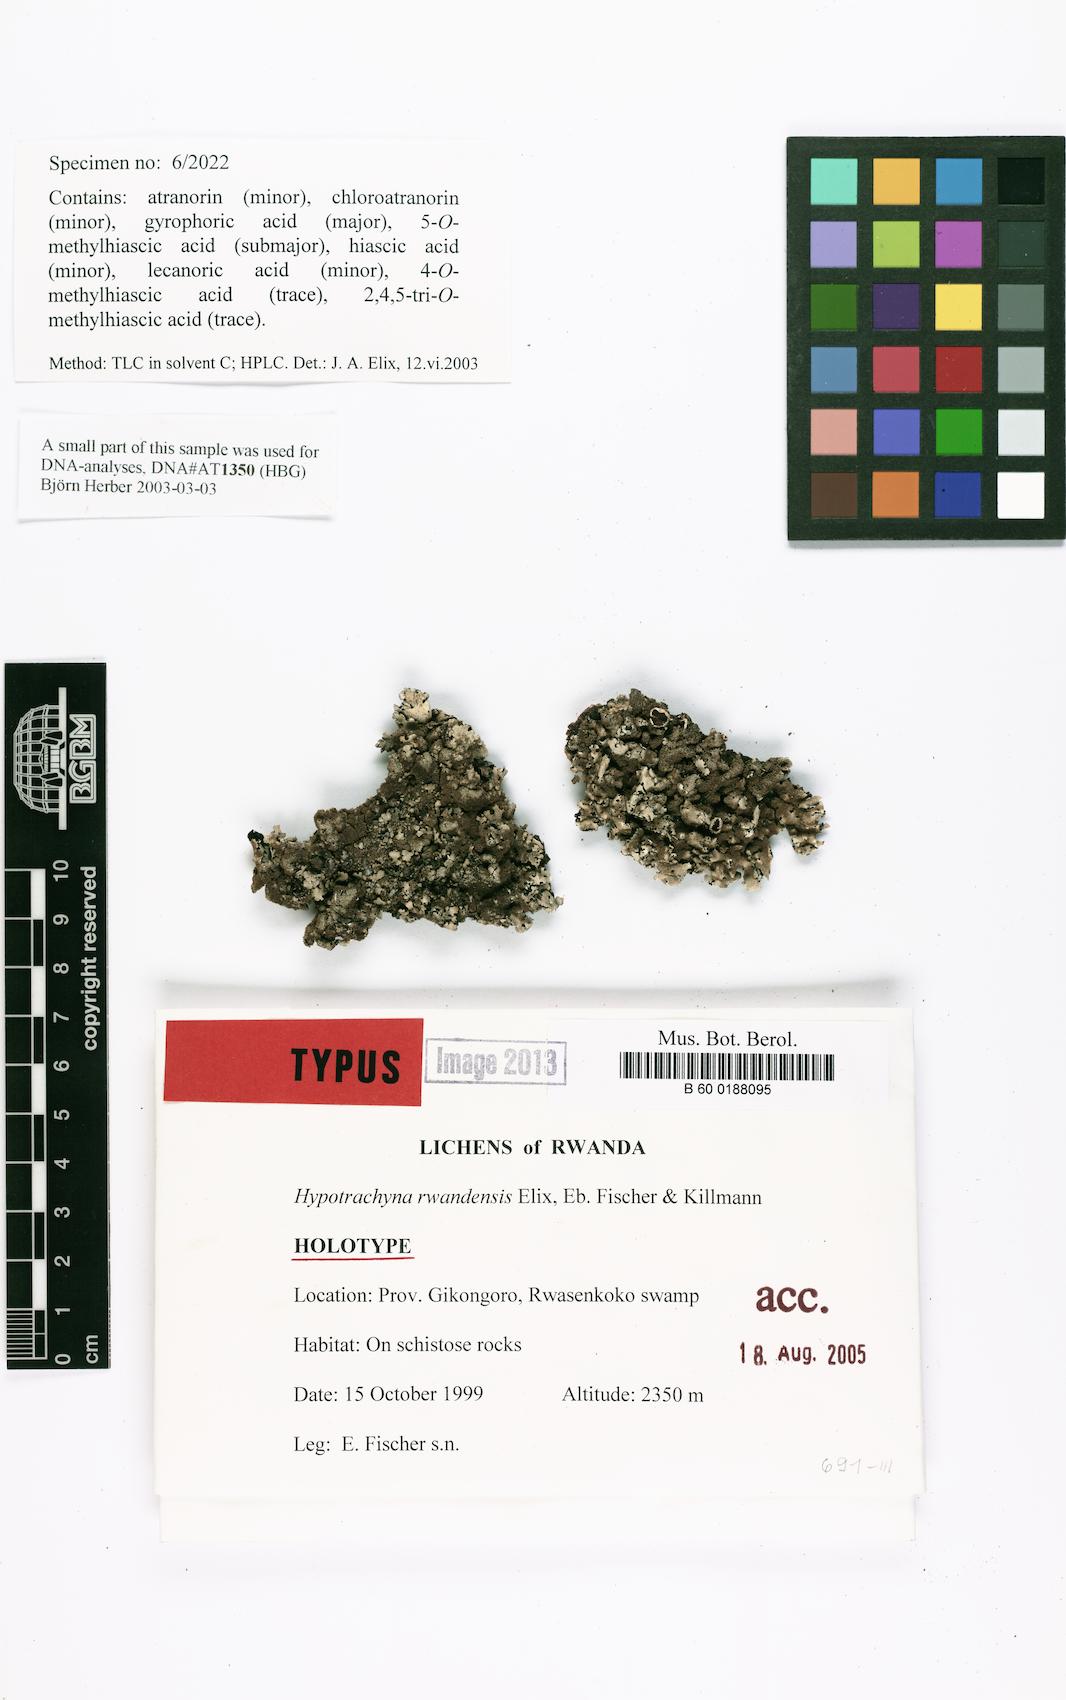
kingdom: Fungi
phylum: Ascomycota
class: Lecanoromycetes
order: Lecanorales
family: Parmeliaceae
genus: Hypotrachyna
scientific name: Hypotrachyna rwandensis
